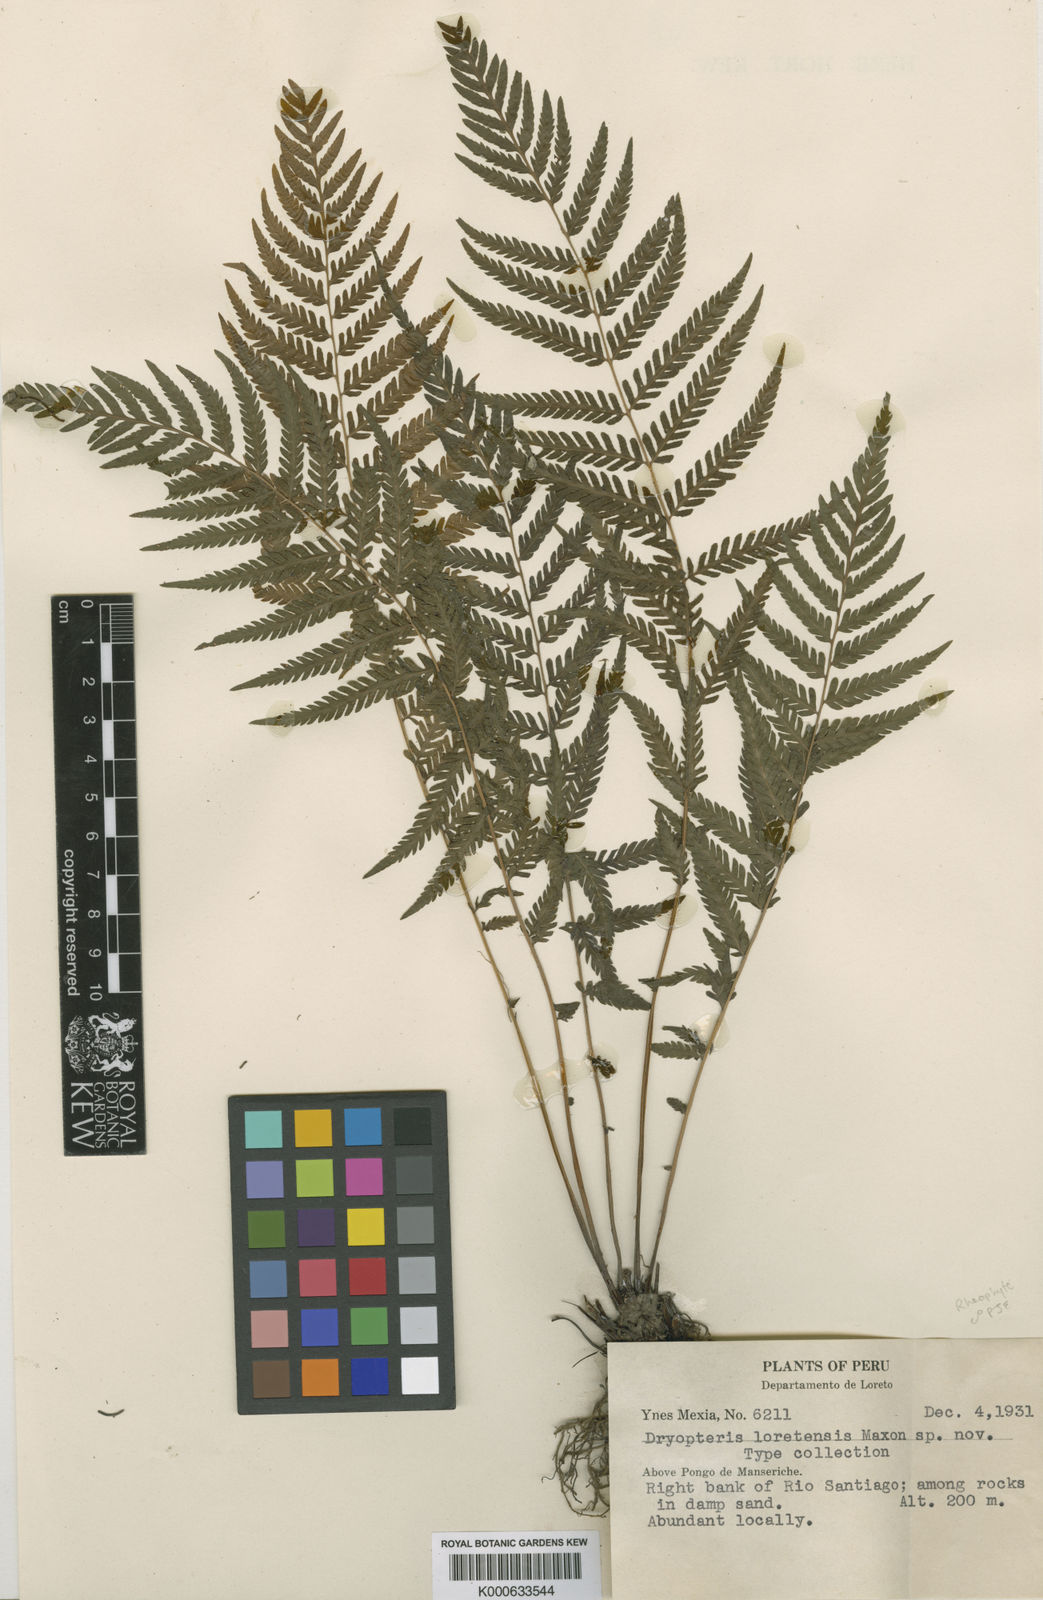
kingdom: Plantae
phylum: Tracheophyta
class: Polypodiopsida
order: Polypodiales
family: Thelypteridaceae
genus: Amauropelta
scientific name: Amauropelta loretensis
